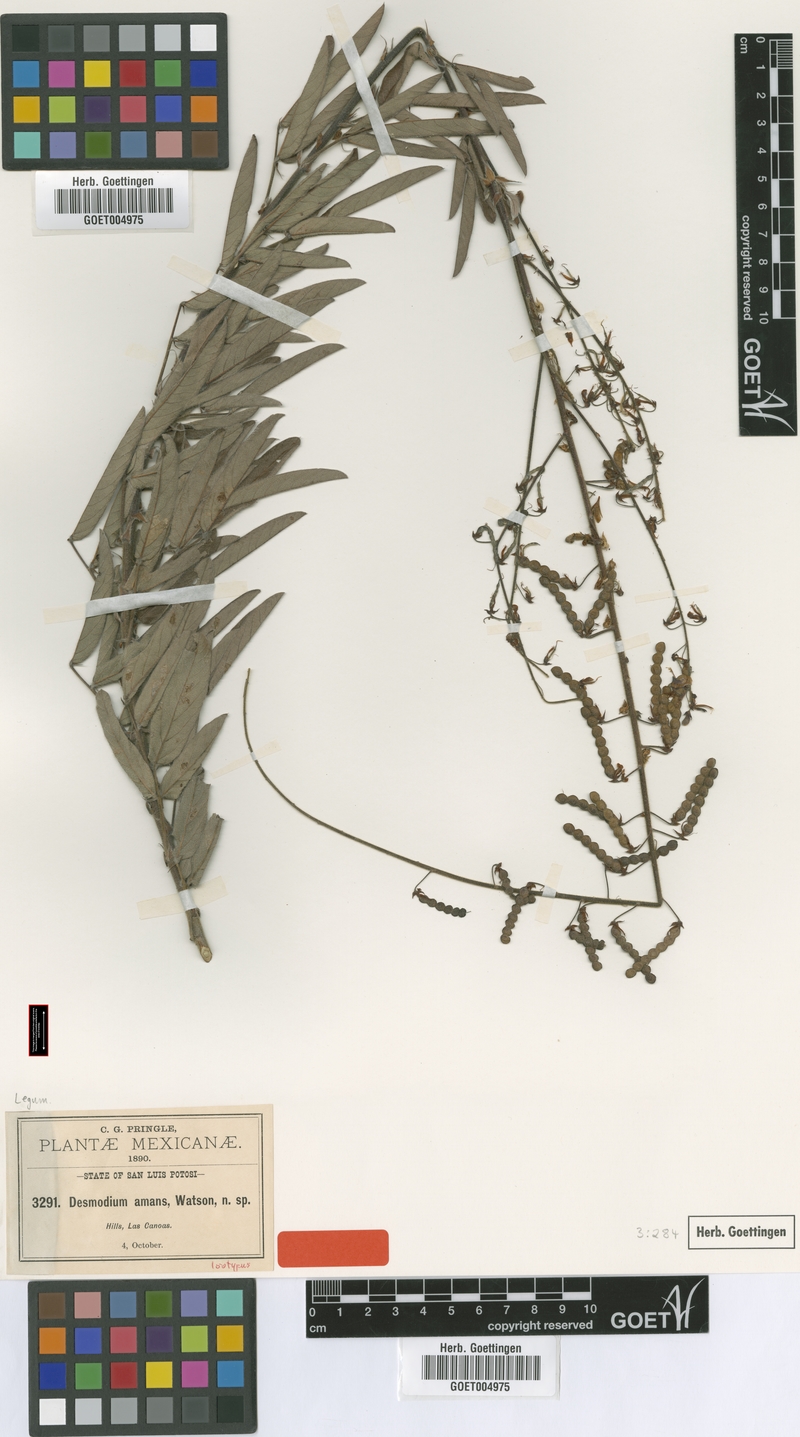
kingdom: Plantae
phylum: Tracheophyta
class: Magnoliopsida
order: Fabales
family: Fabaceae
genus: Desmodium
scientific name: Desmodium hartwegianum
